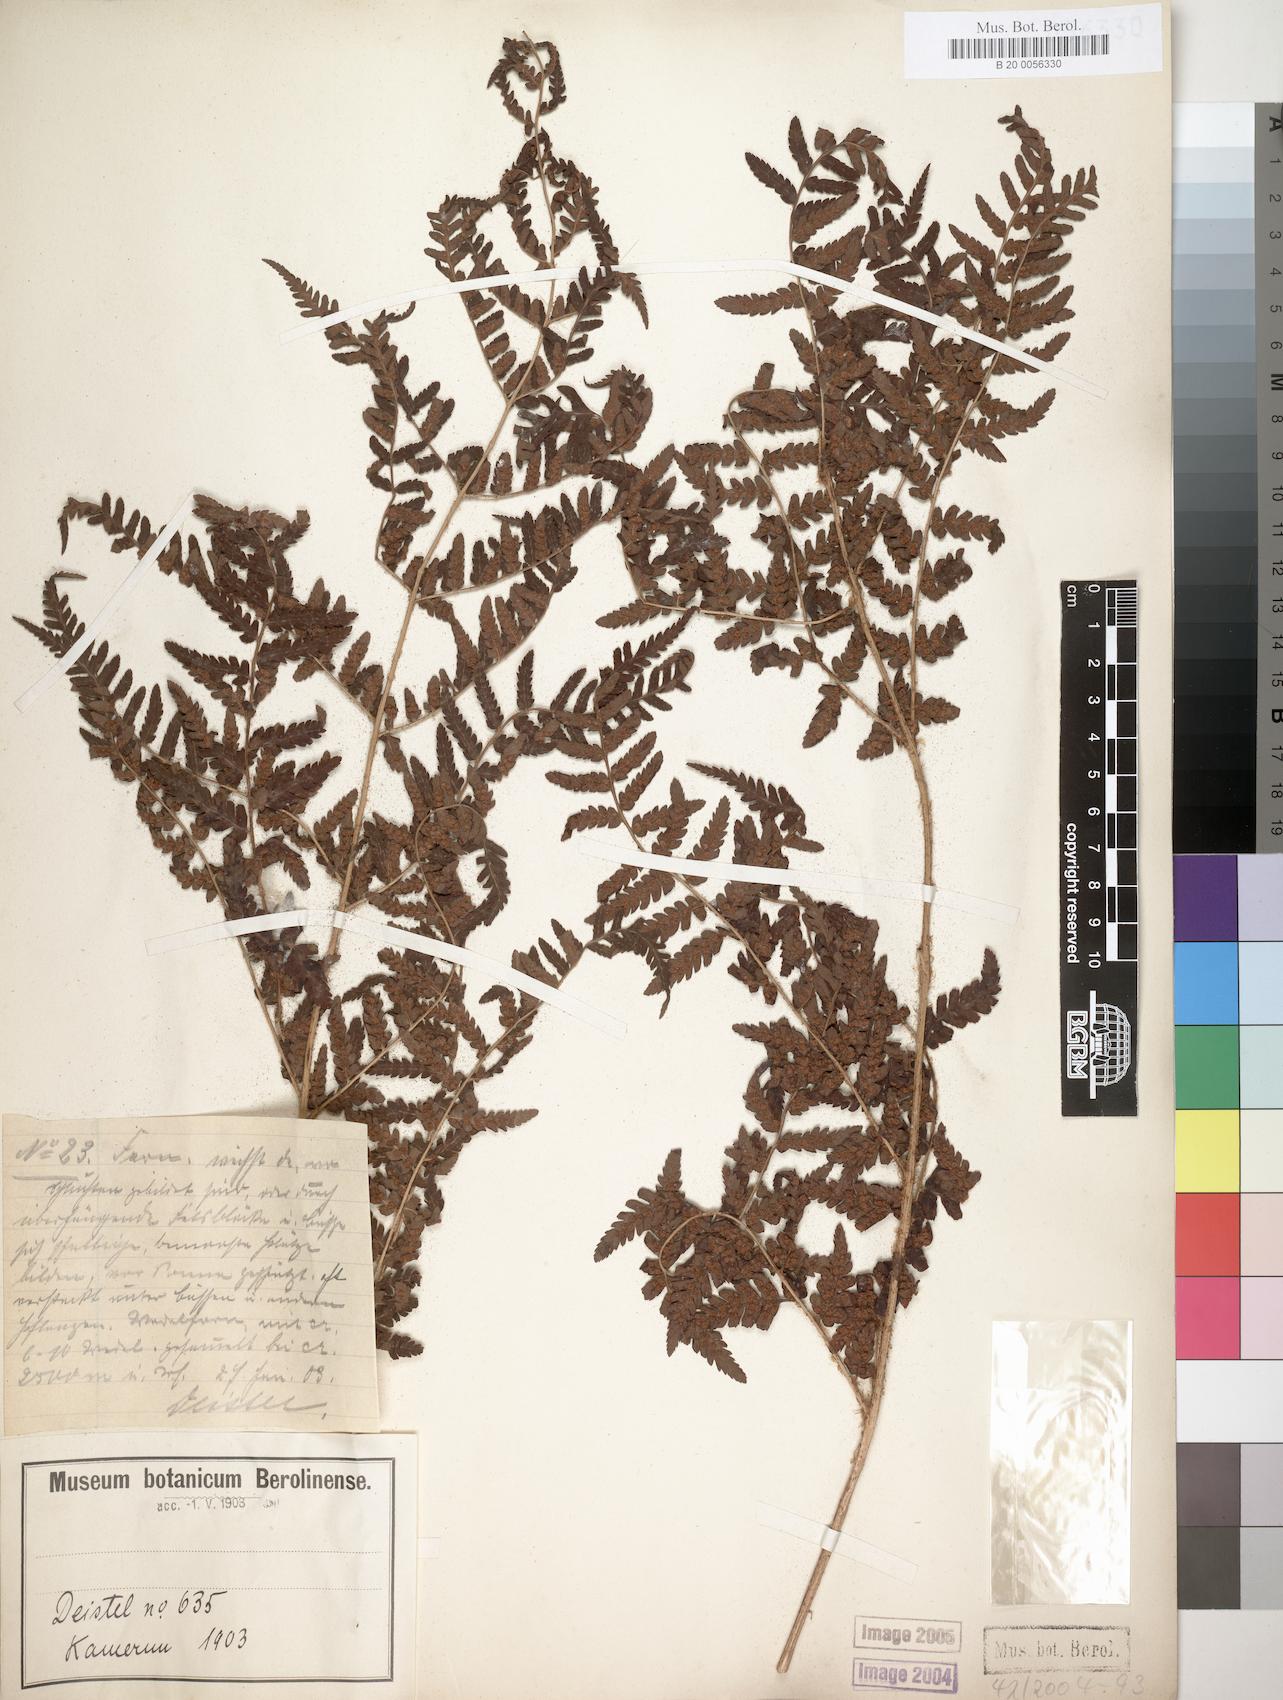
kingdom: Plantae
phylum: Tracheophyta
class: Polypodiopsida
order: Polypodiales
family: Dryopteridaceae
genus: Dryopteris
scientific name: Dryopteris filix-mas
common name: Male fern
